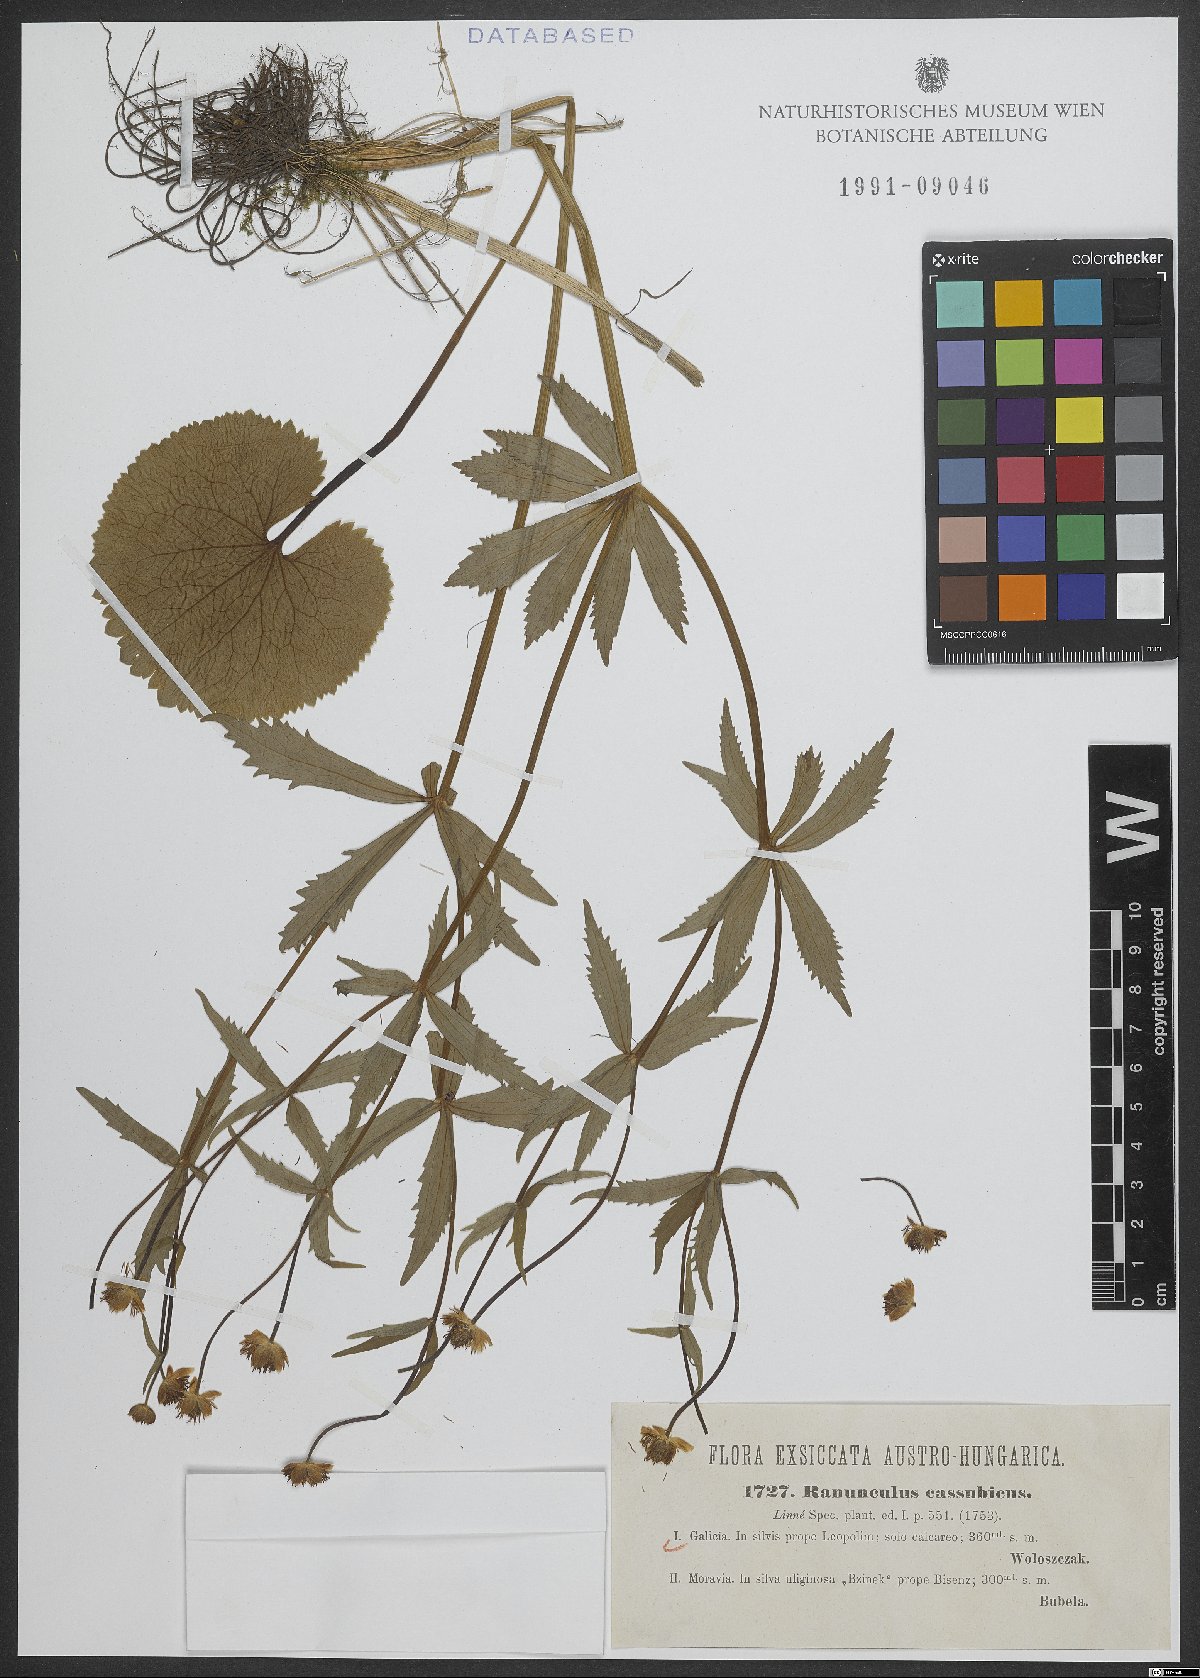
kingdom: Plantae
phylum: Tracheophyta
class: Magnoliopsida
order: Ranunculales
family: Ranunculaceae
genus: Ranunculus
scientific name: Ranunculus cassubicus
